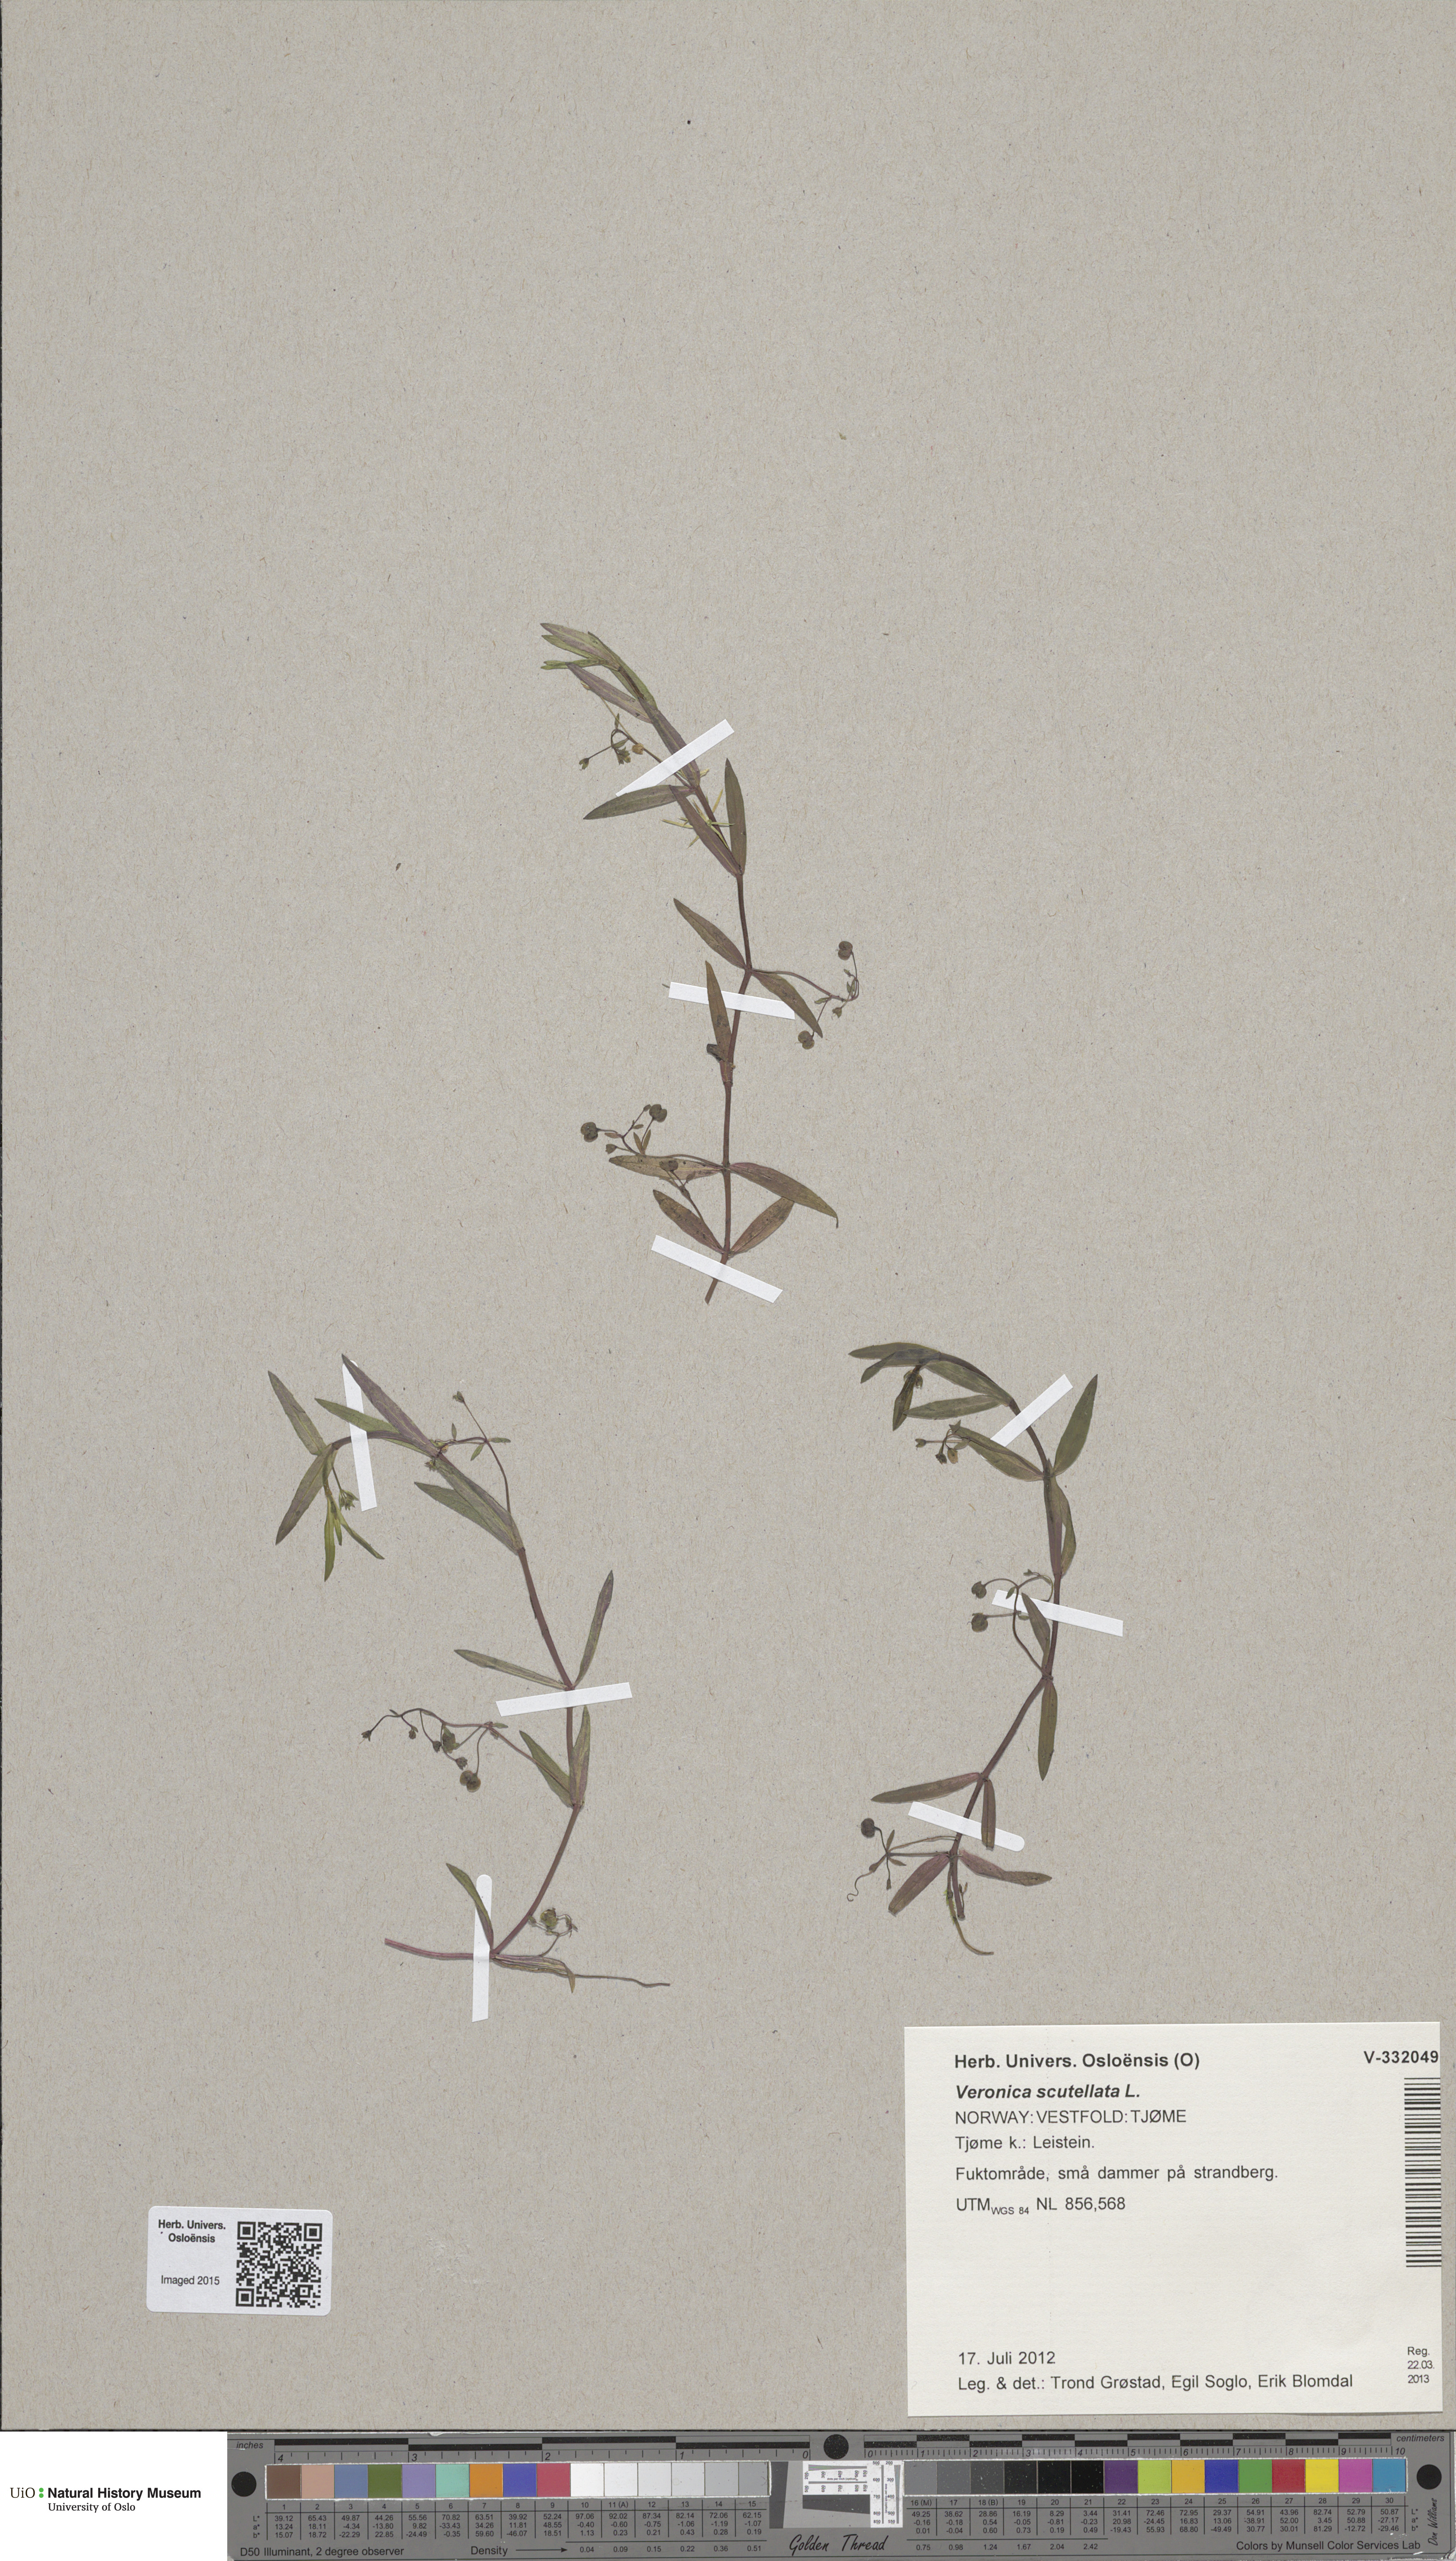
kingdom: Plantae
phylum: Tracheophyta
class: Magnoliopsida
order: Lamiales
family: Plantaginaceae
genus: Veronica
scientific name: Veronica scutellata
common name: Marsh speedwell
